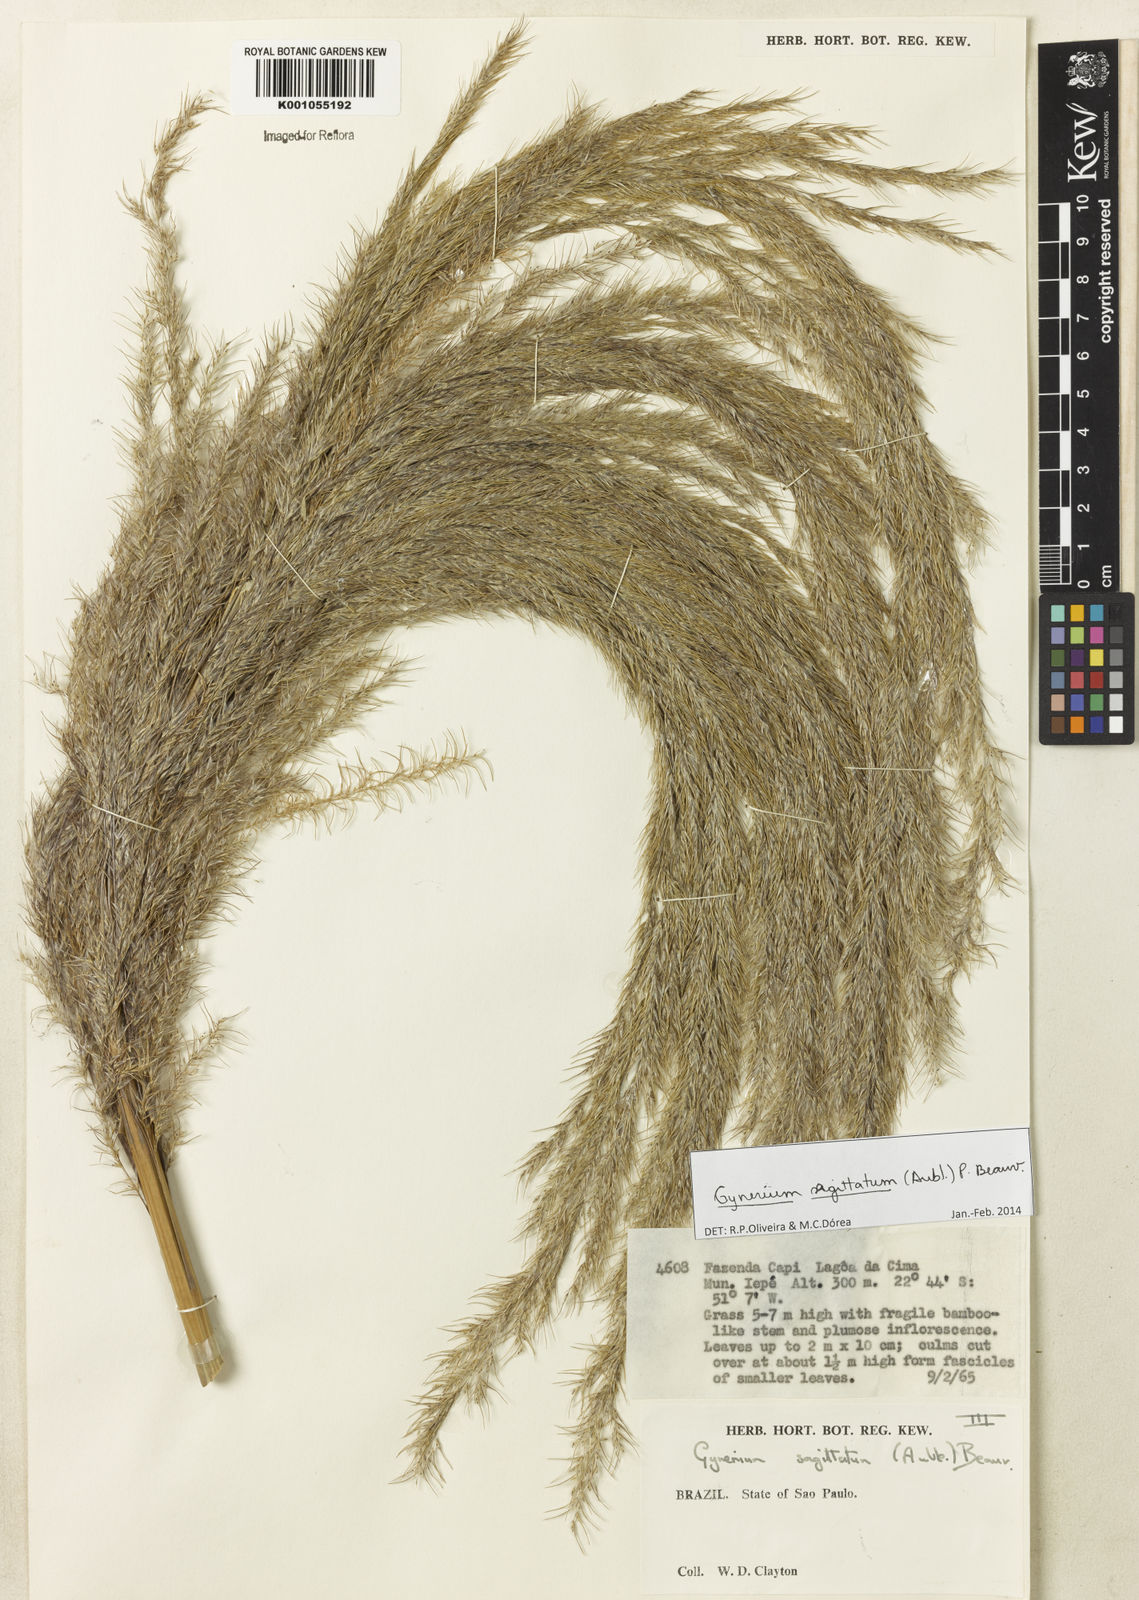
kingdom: Plantae
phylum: Tracheophyta
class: Liliopsida
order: Poales
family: Poaceae
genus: Gynerium
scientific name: Gynerium sagittatum
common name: Wild cane
